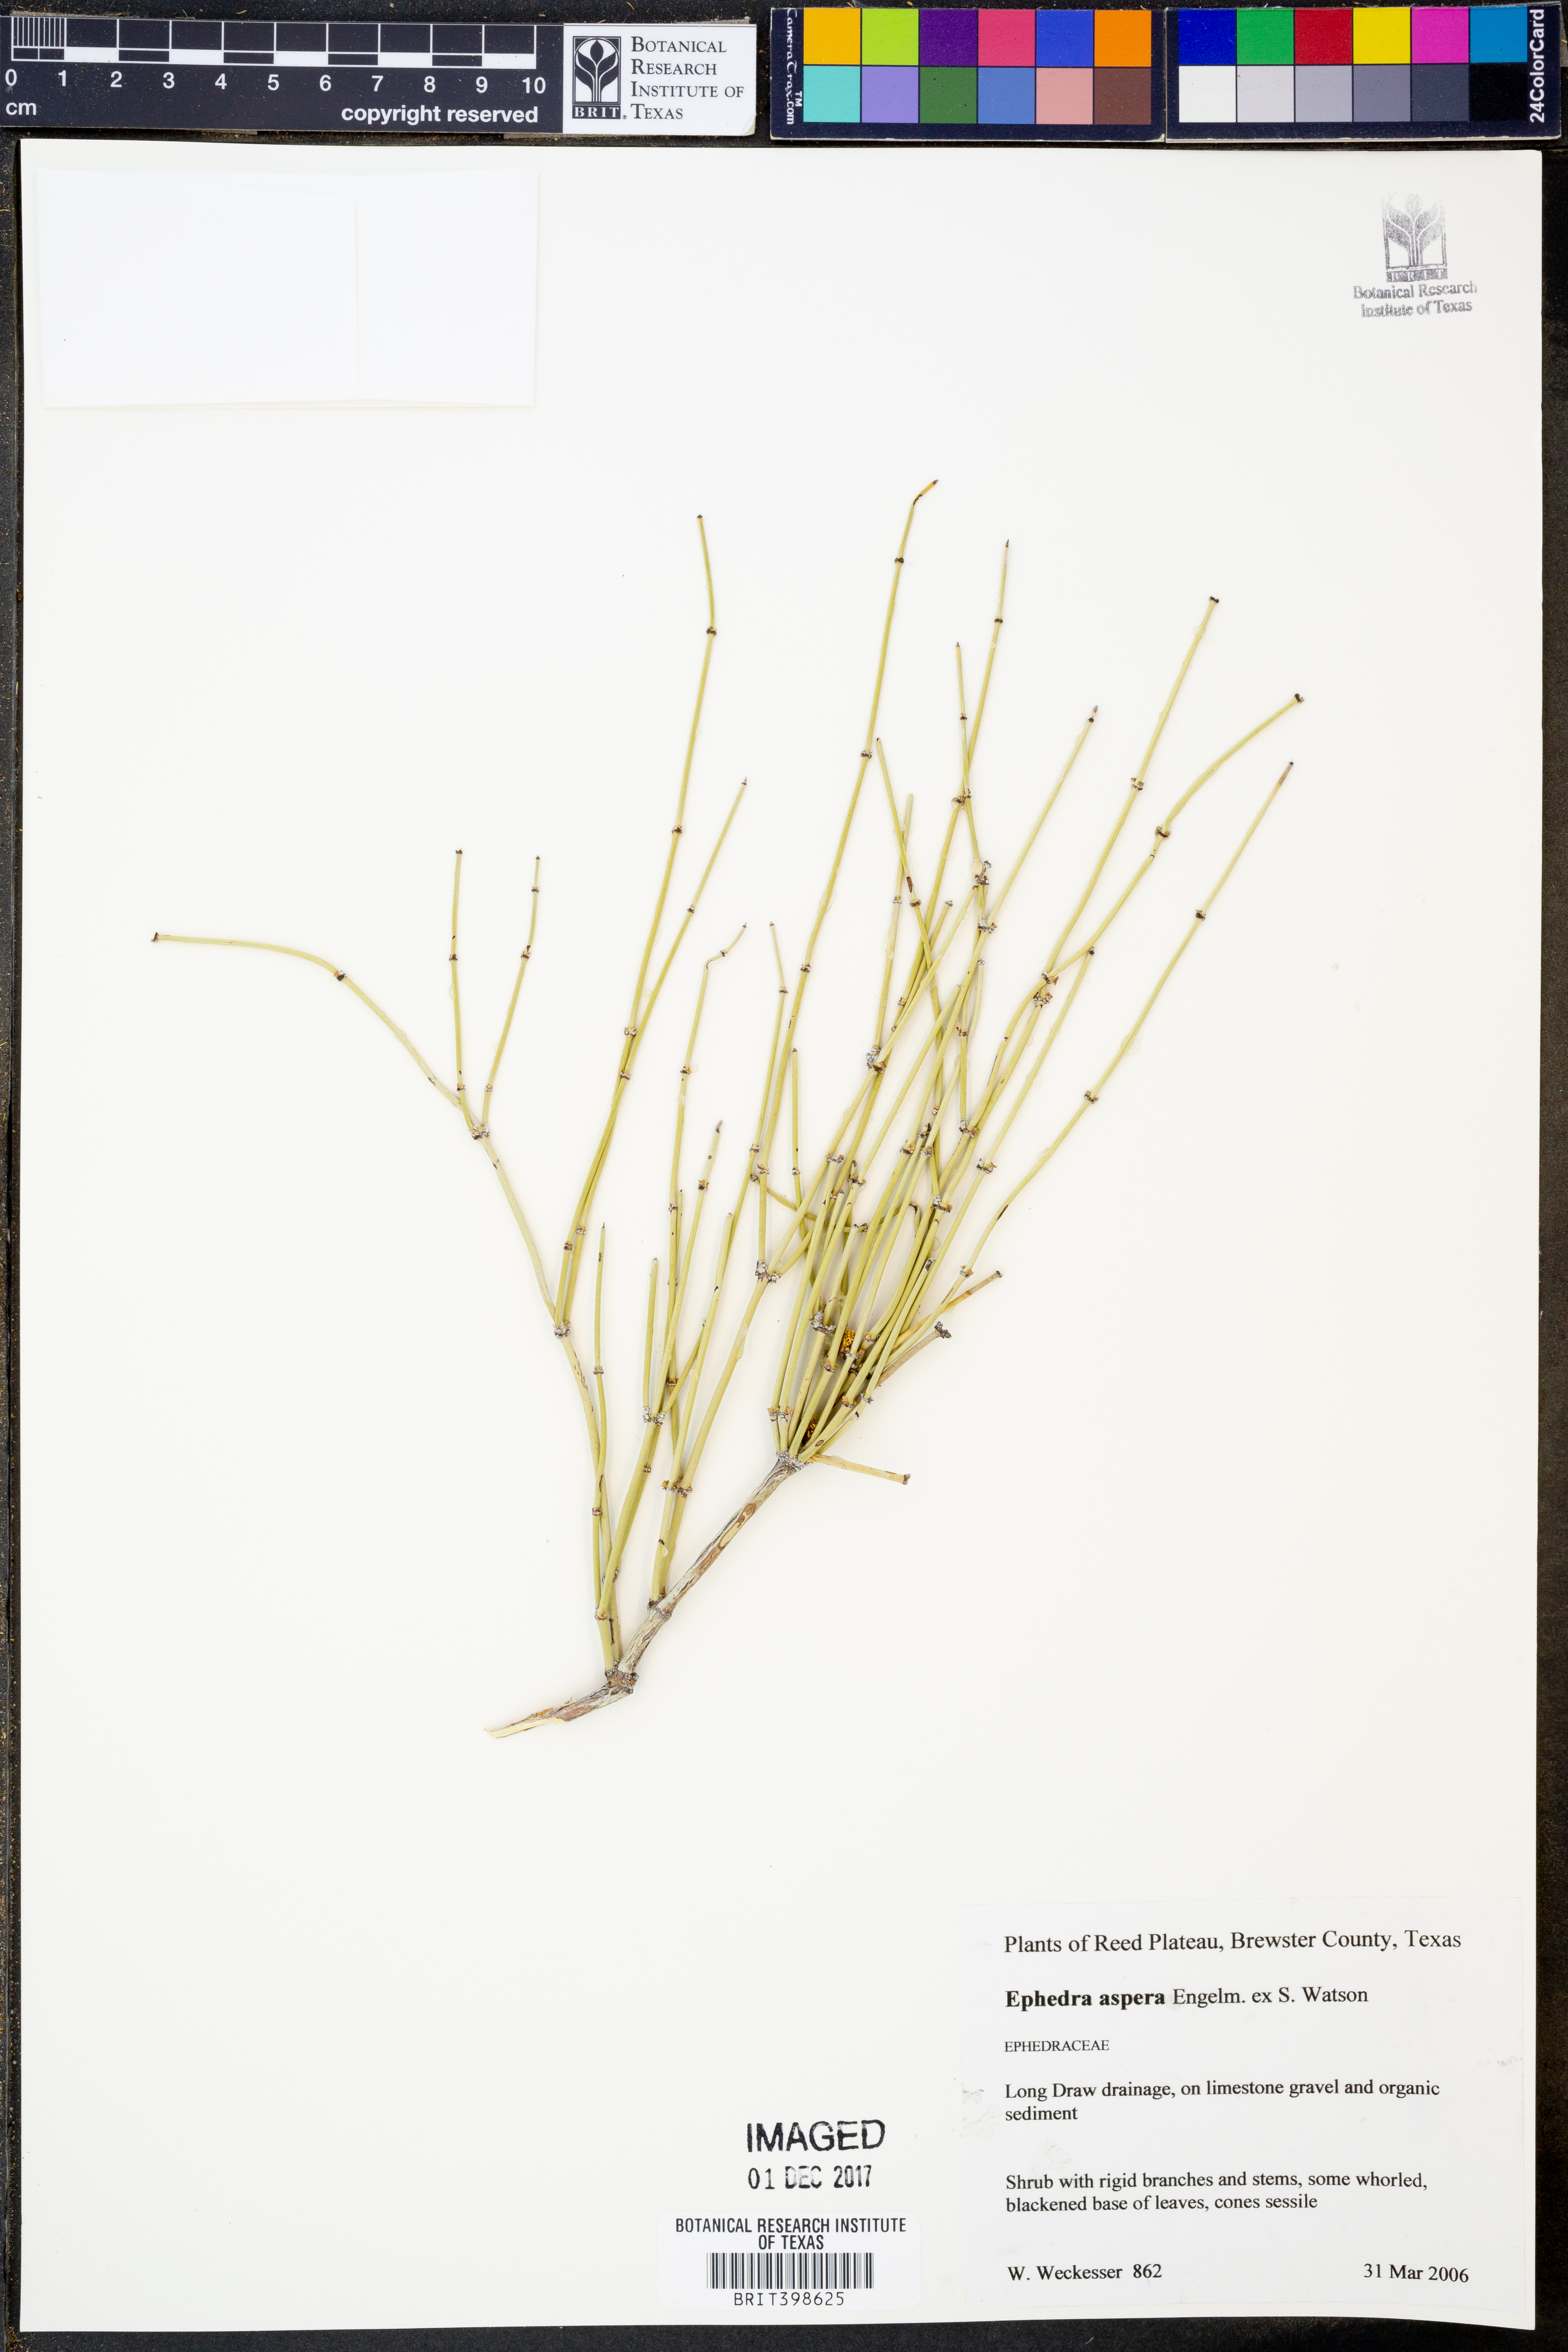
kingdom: Plantae
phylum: Tracheophyta
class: Gnetopsida
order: Ephedrales
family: Ephedraceae
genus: Ephedra
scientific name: Ephedra aspera
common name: Boundary ephedra
